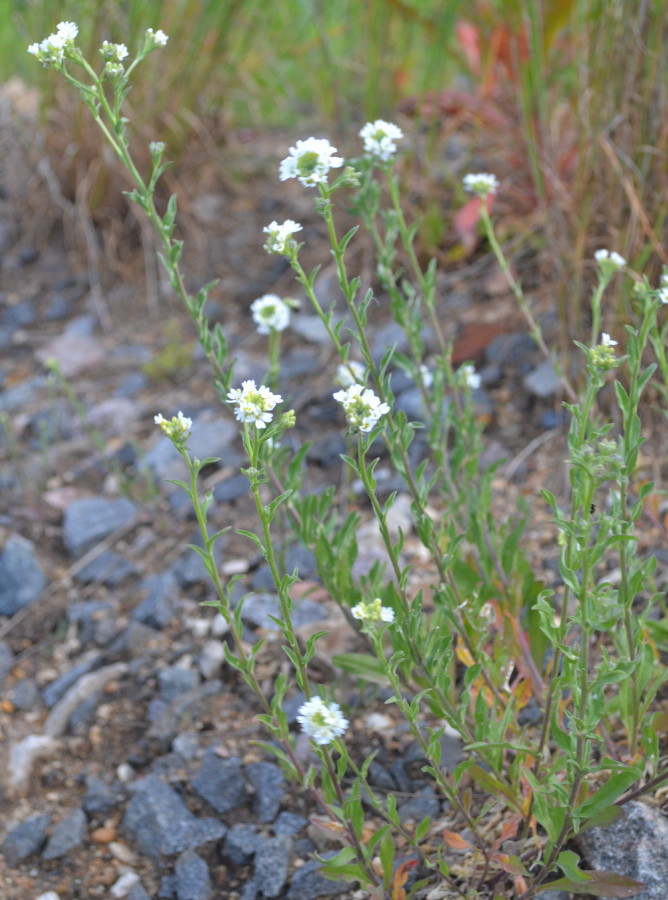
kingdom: Plantae
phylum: Tracheophyta
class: Magnoliopsida
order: Brassicales
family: Brassicaceae
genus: Berteroa
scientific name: Berteroa incana
